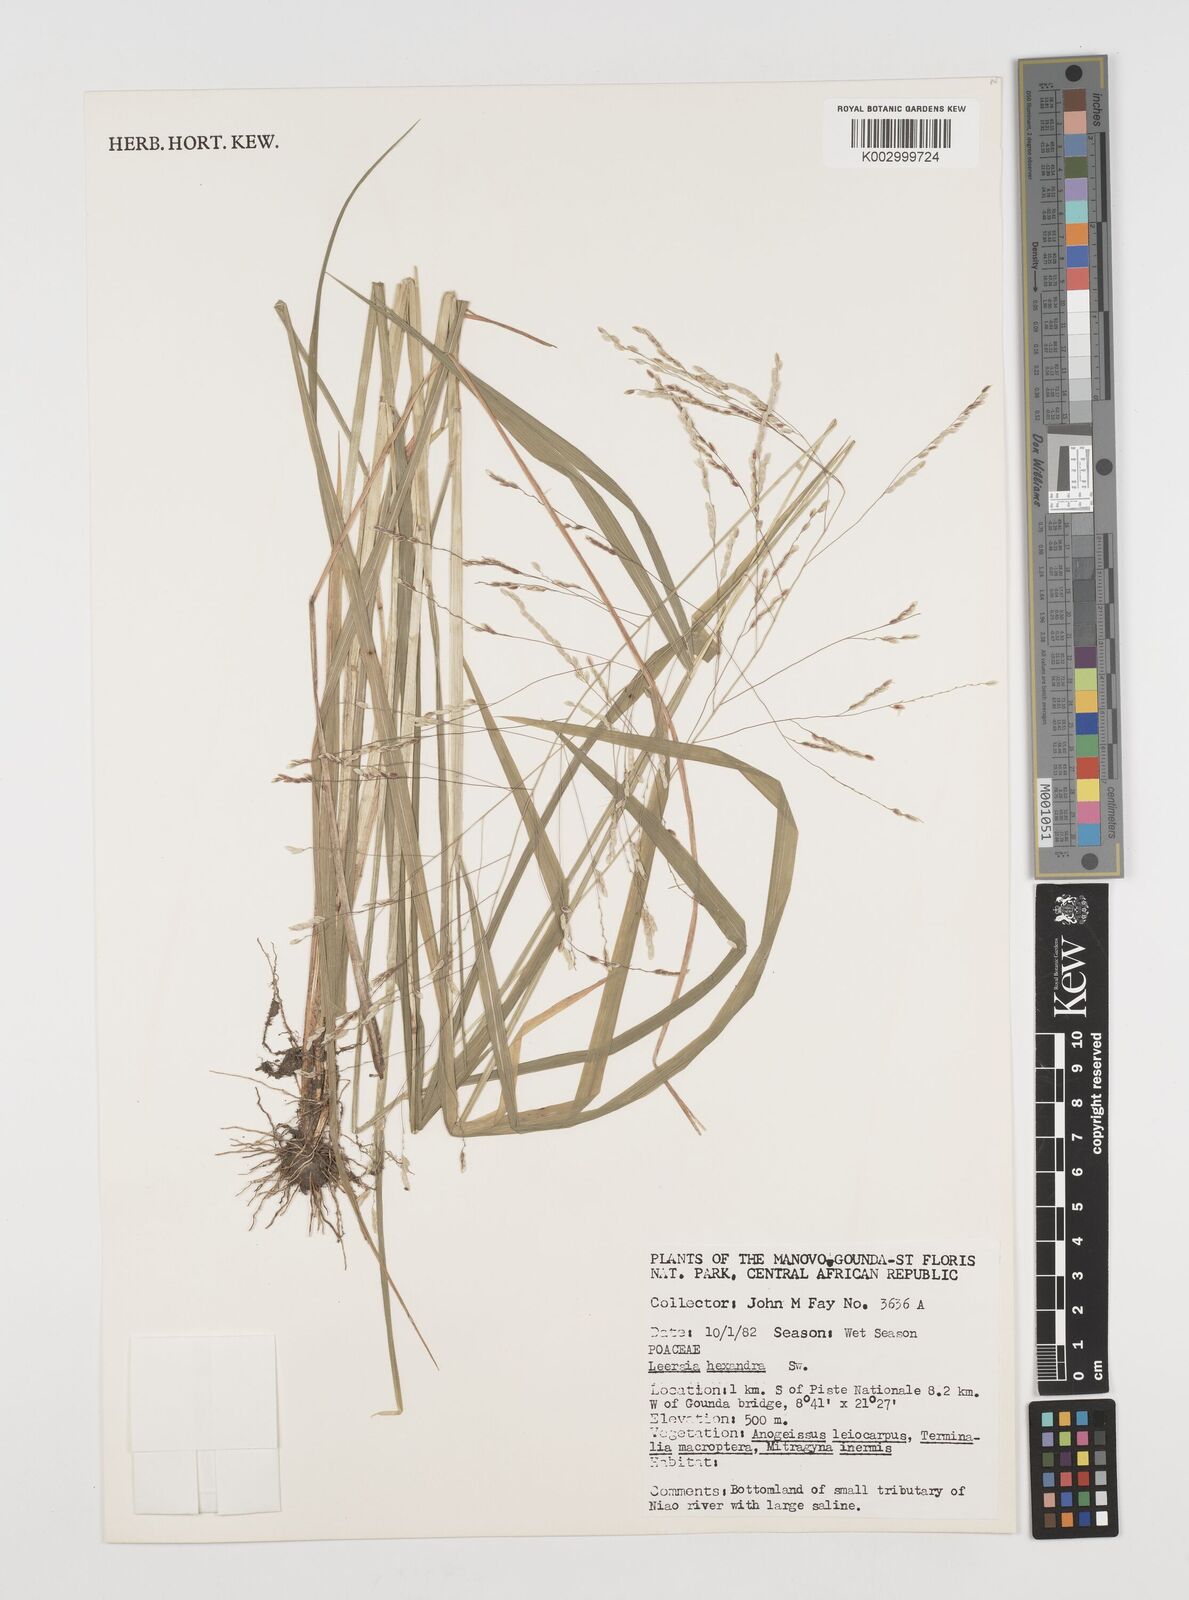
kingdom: Plantae
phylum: Tracheophyta
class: Liliopsida
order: Poales
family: Poaceae
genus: Leersia
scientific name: Leersia hexandra
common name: Southern cut grass
